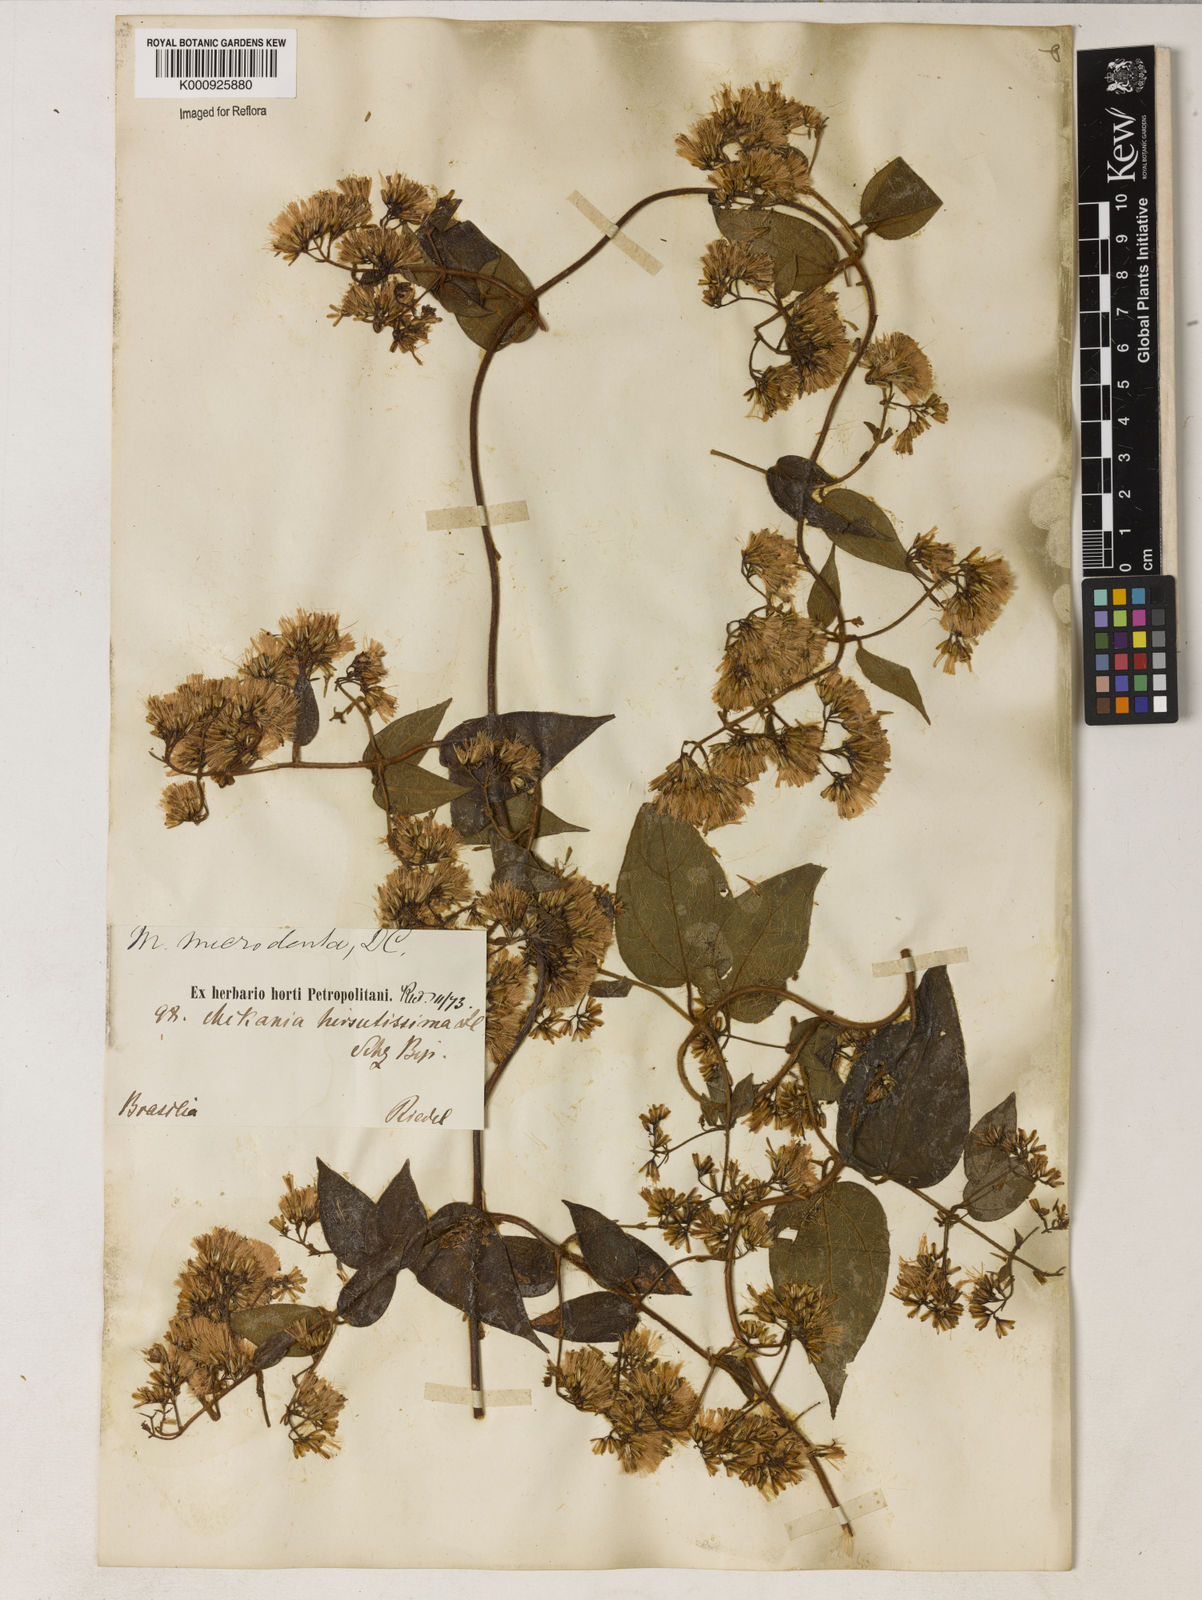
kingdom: Plantae
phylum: Tracheophyta
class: Magnoliopsida
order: Asterales
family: Asteraceae
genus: Mikania
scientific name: Mikania microdonta
